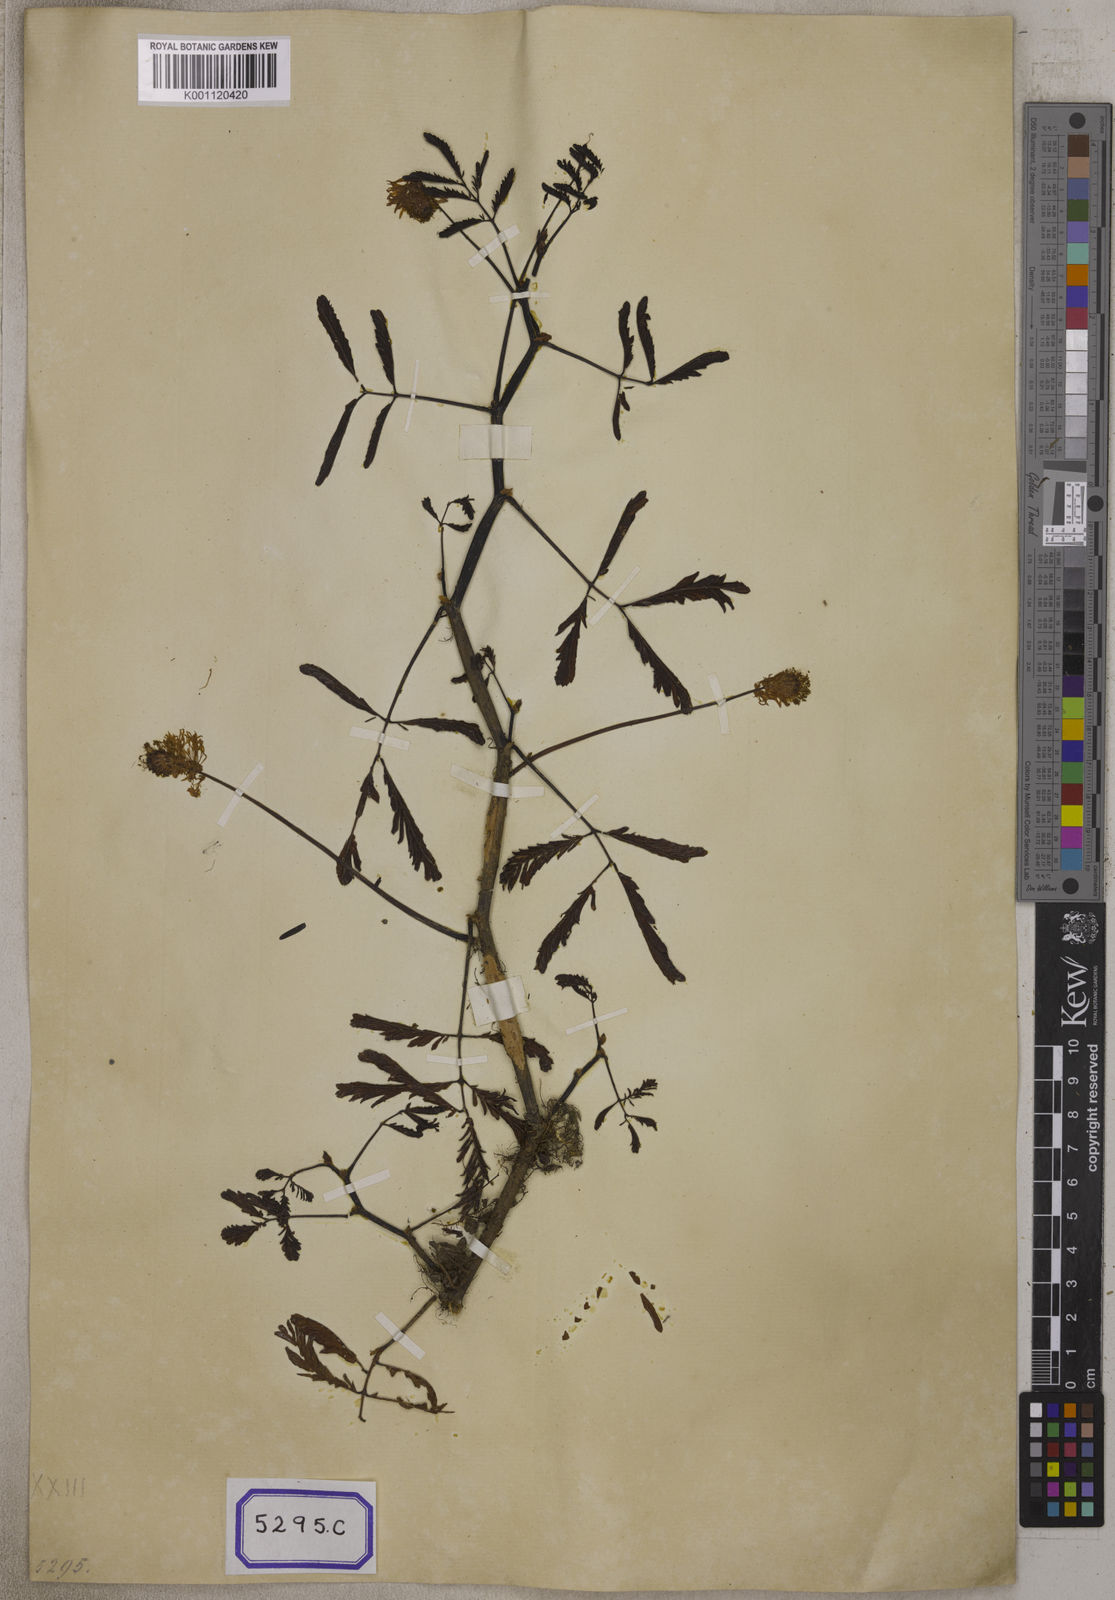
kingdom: Plantae
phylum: Tracheophyta
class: Magnoliopsida
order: Fabales
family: Fabaceae
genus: Neptunia
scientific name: Neptunia prostrata
